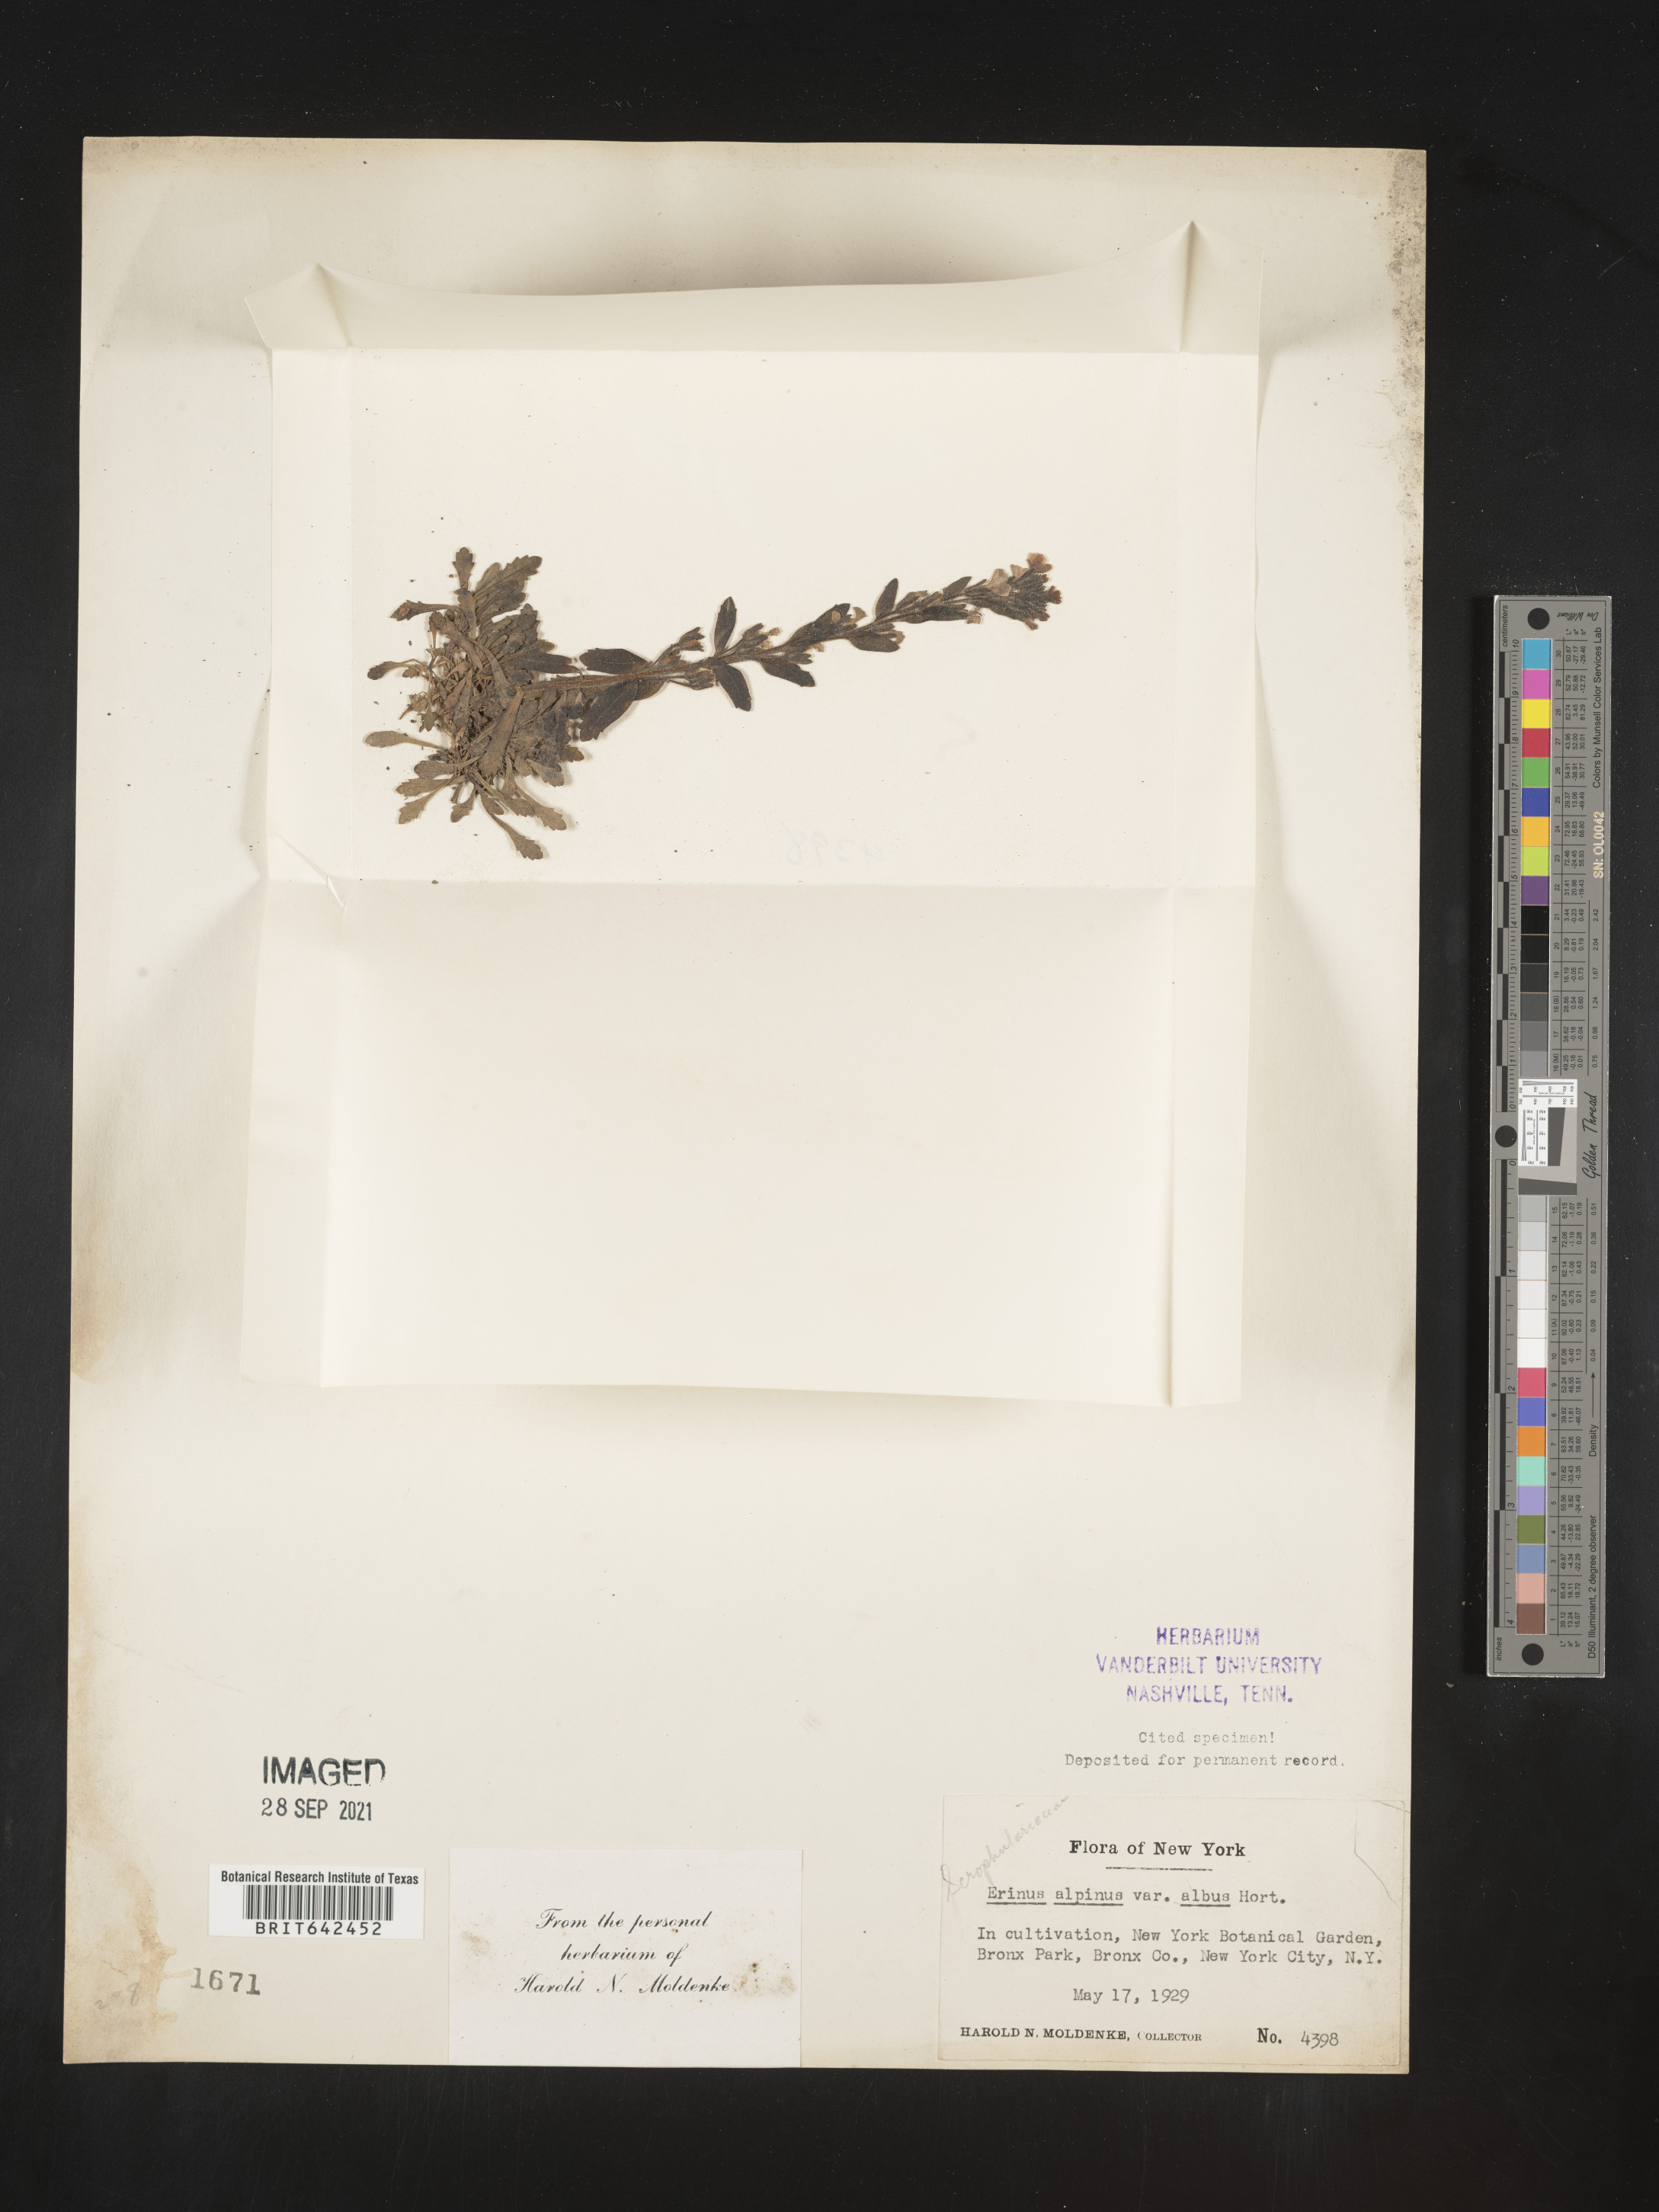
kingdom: Plantae
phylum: Tracheophyta
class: Magnoliopsida
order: Lamiales
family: Plantaginaceae
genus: Erinus
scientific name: Erinus
